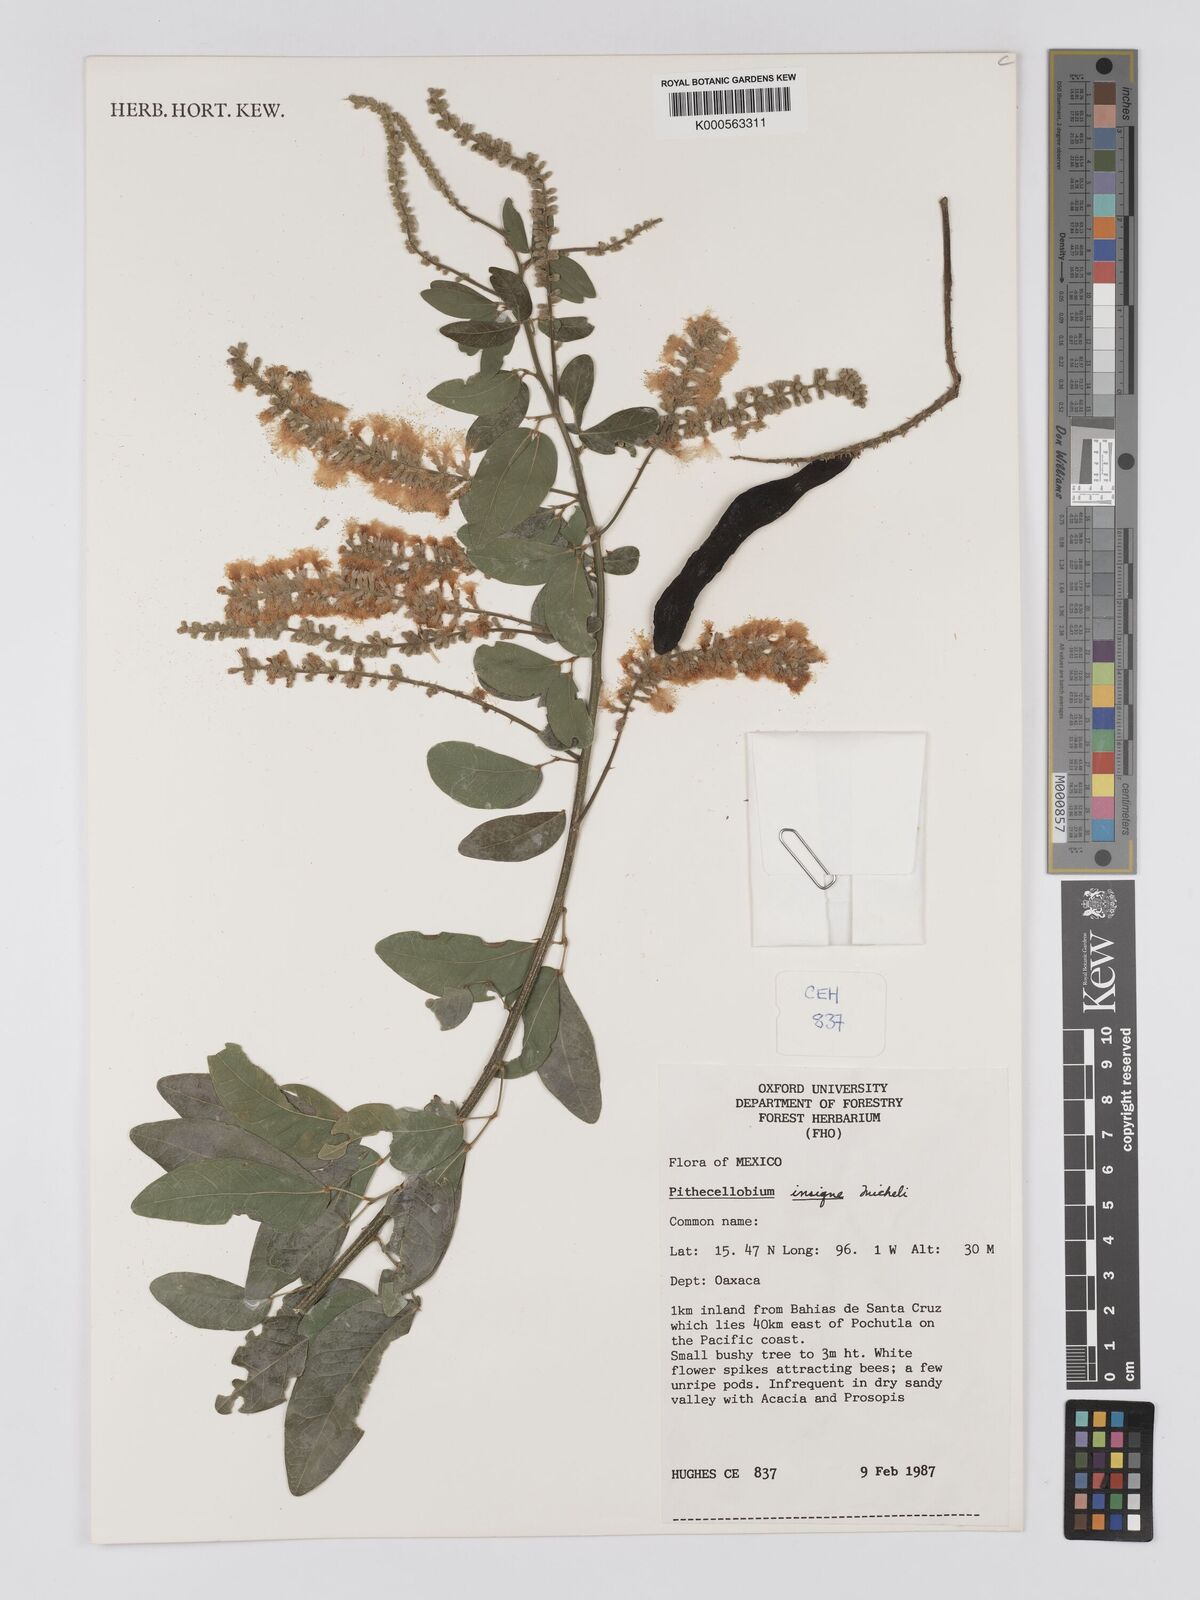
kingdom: Plantae
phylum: Tracheophyta
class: Magnoliopsida
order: Fabales
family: Fabaceae
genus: Pithecellobium
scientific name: Pithecellobium lanceolatum
